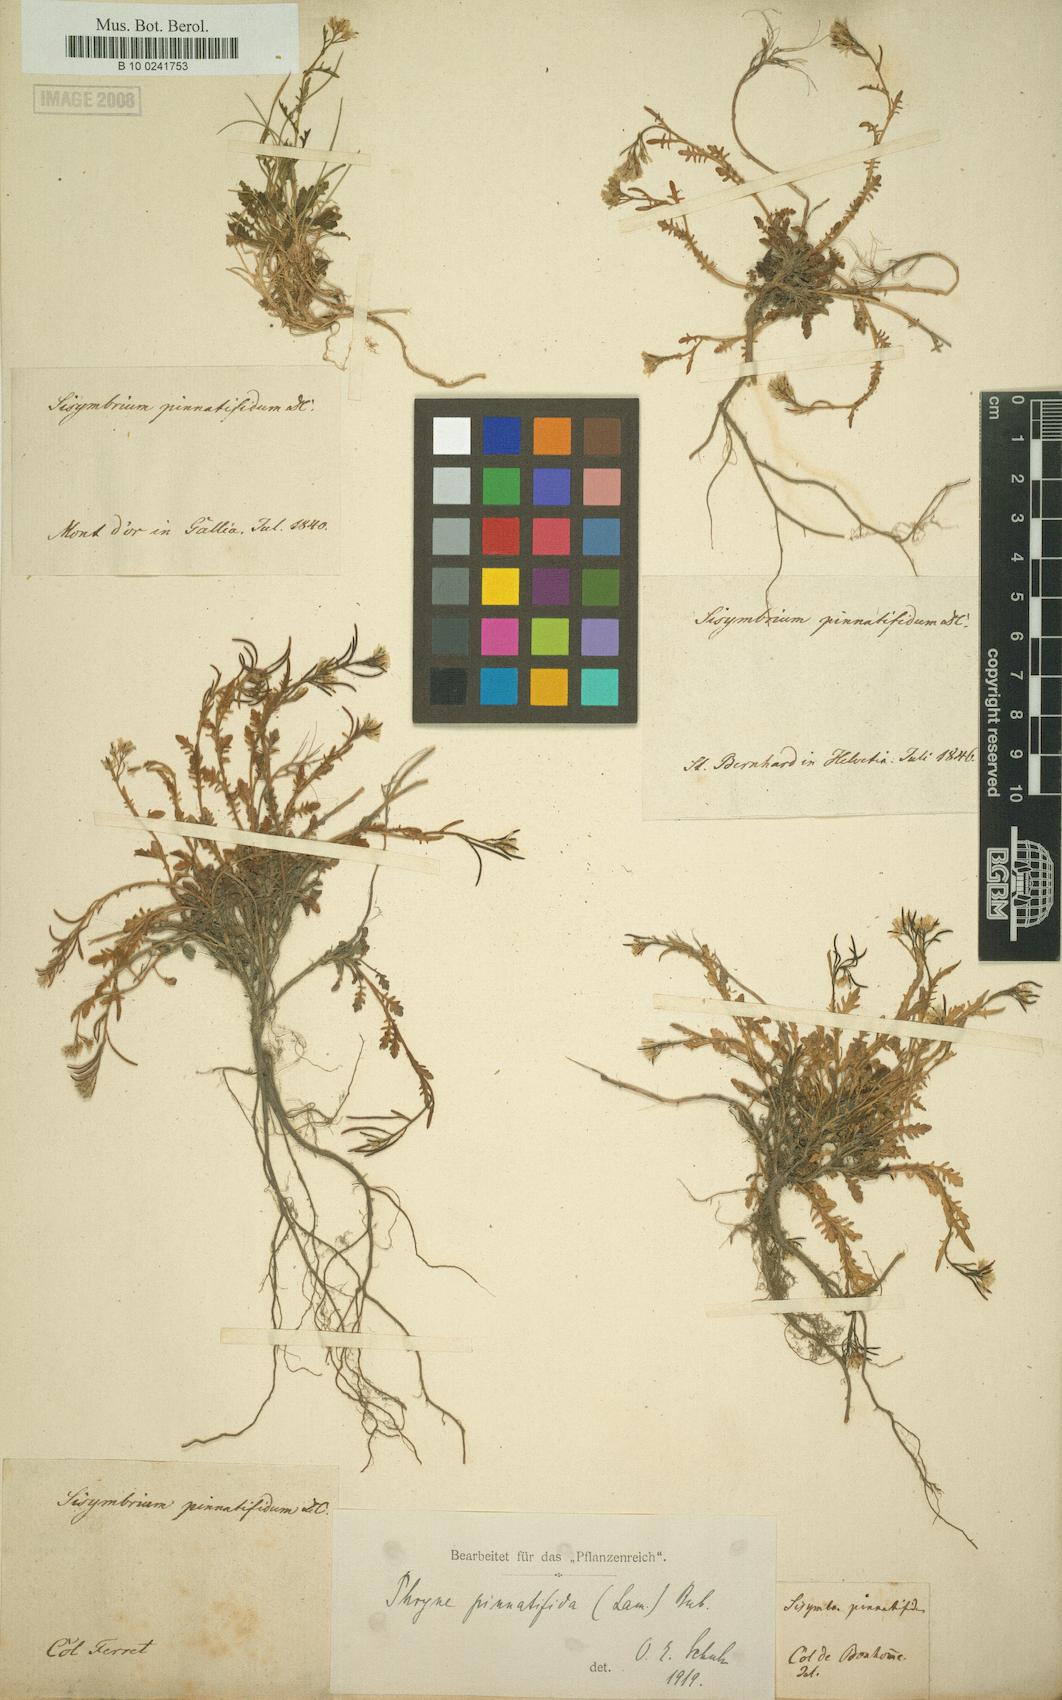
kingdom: Plantae
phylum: Tracheophyta
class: Magnoliopsida
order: Brassicales
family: Brassicaceae
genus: Murbeckiella
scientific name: Murbeckiella pinnatifida
